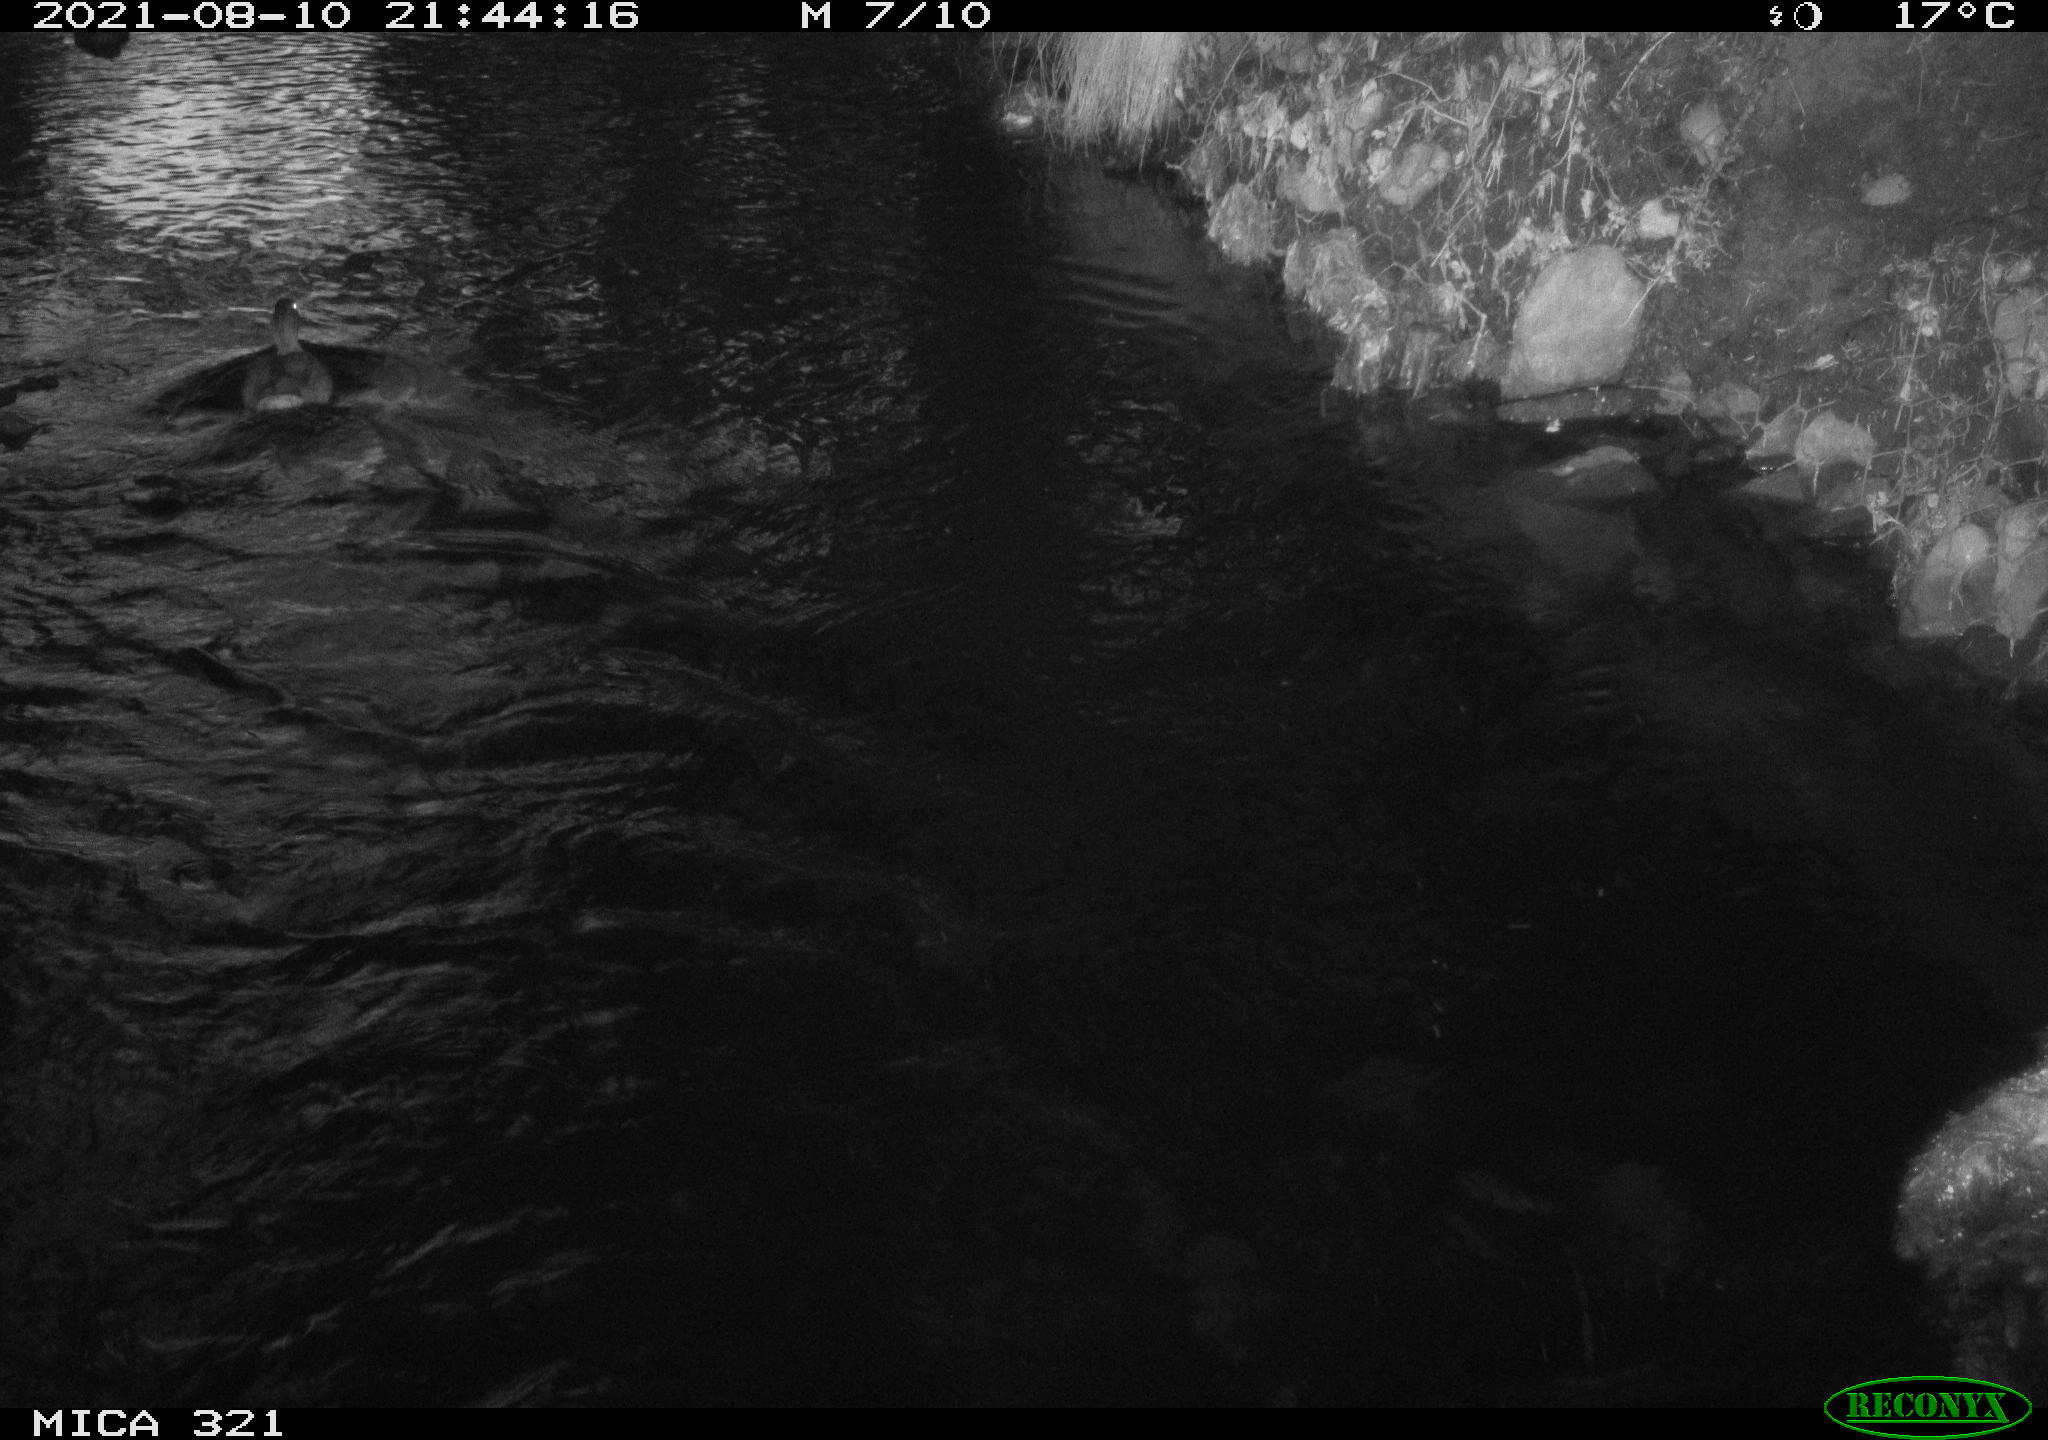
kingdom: Animalia
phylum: Chordata
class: Aves
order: Anseriformes
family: Anatidae
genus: Anas
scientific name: Anas platyrhynchos
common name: Mallard
